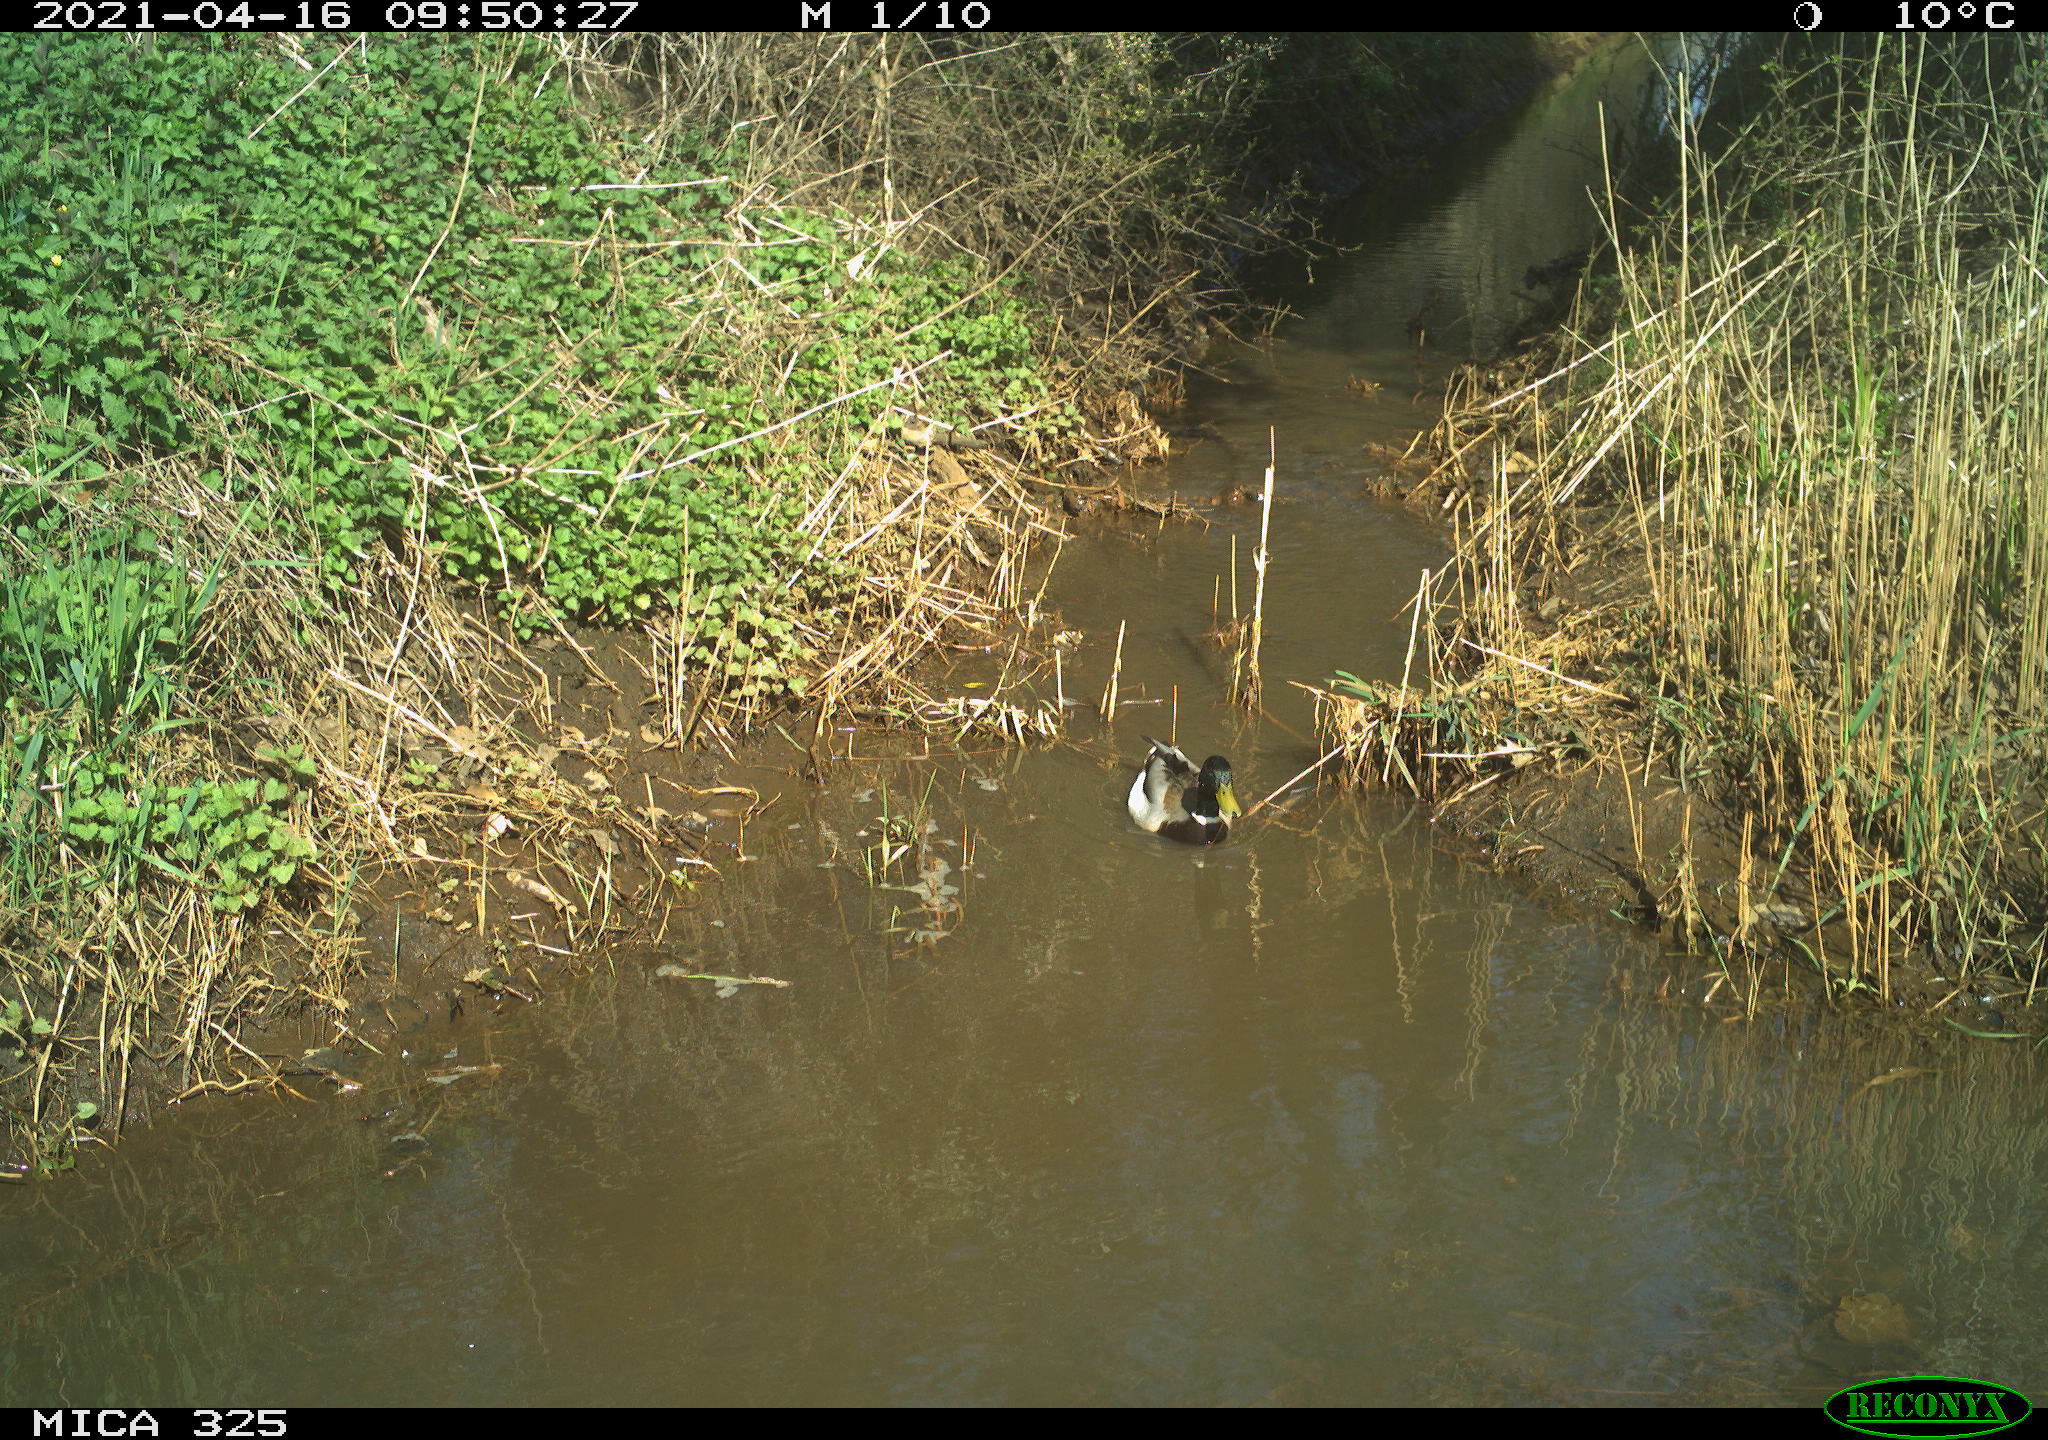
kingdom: Animalia
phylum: Chordata
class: Aves
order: Anseriformes
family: Anatidae
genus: Anas
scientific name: Anas platyrhynchos
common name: Mallard
